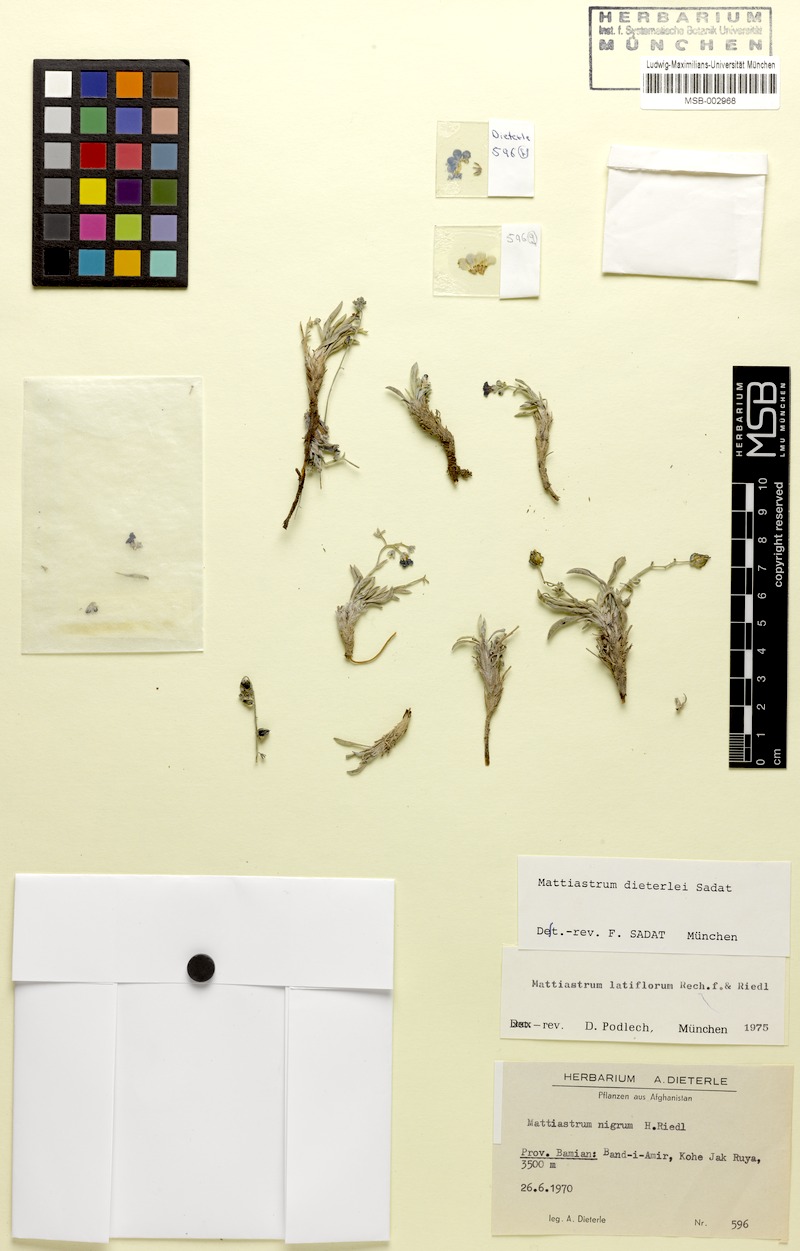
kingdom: Plantae
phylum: Tracheophyta
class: Magnoliopsida
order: Boraginales
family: Boraginaceae
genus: Paracaryum
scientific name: Paracaryum dieterlei
